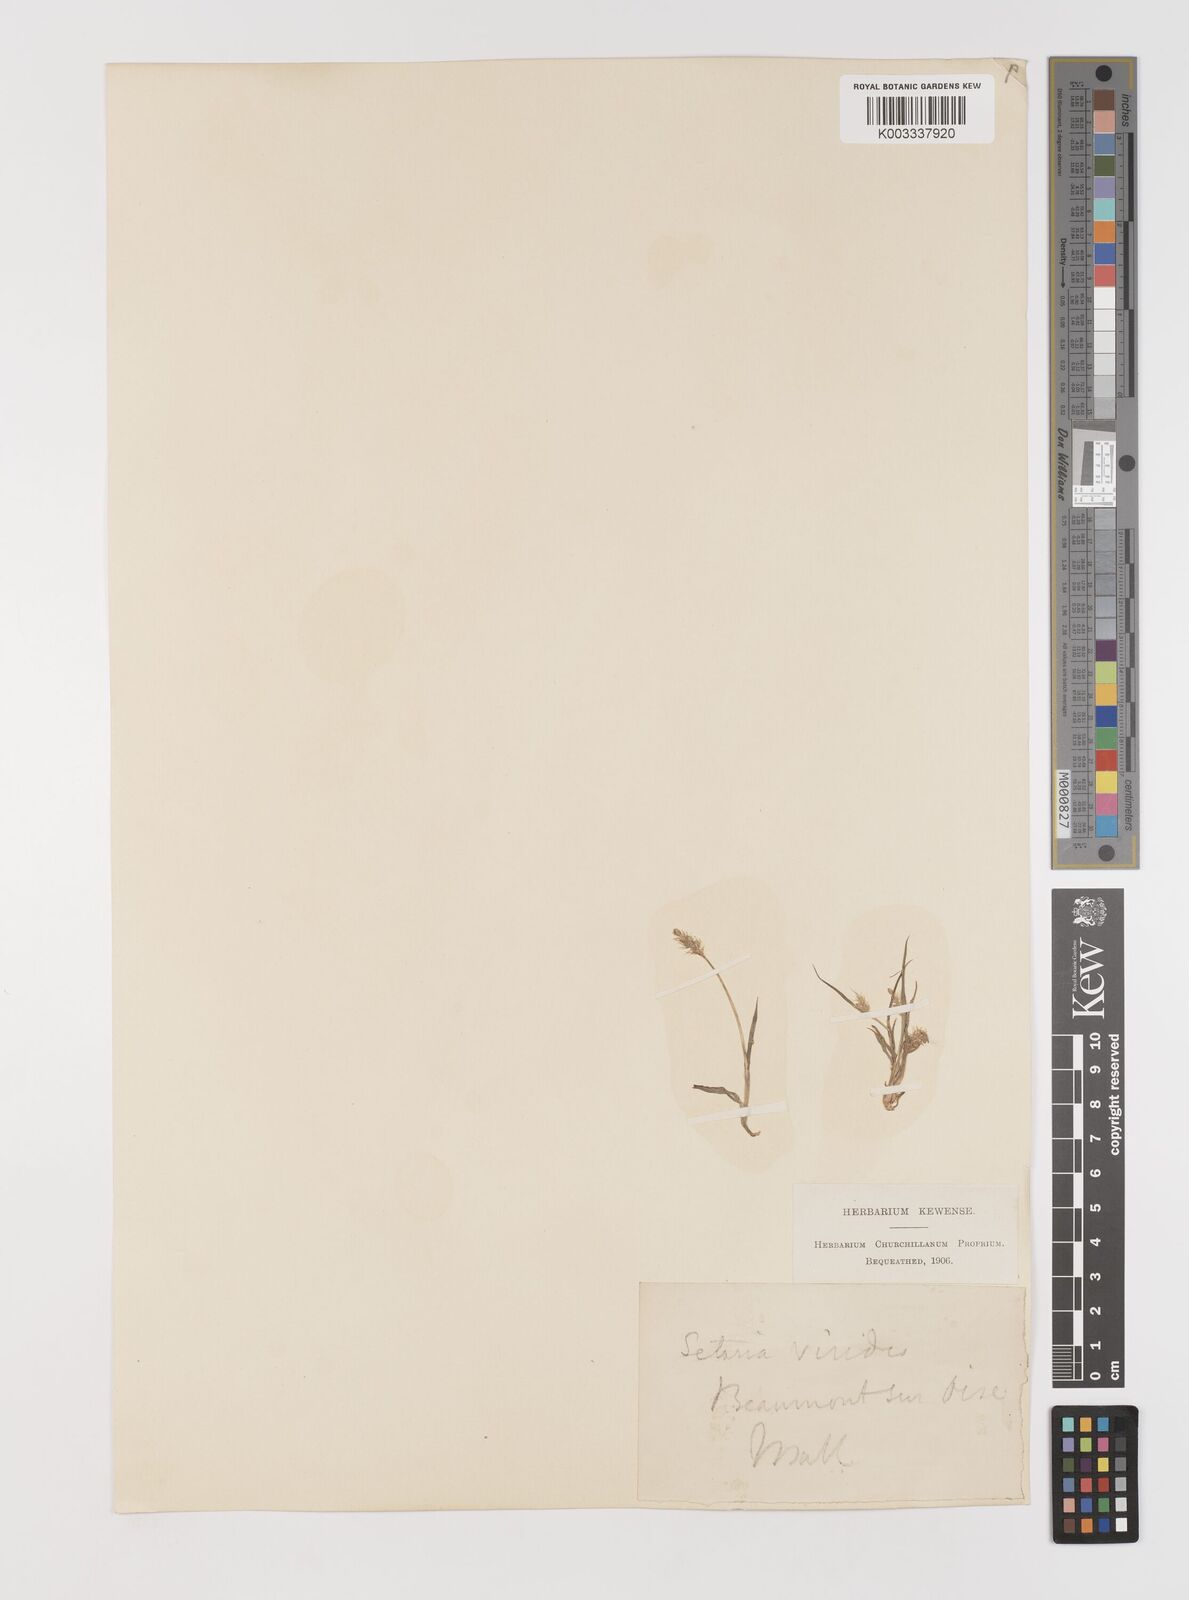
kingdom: Plantae
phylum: Tracheophyta
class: Liliopsida
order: Poales
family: Poaceae
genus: Setaria
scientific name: Setaria viridis
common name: Green bristlegrass
